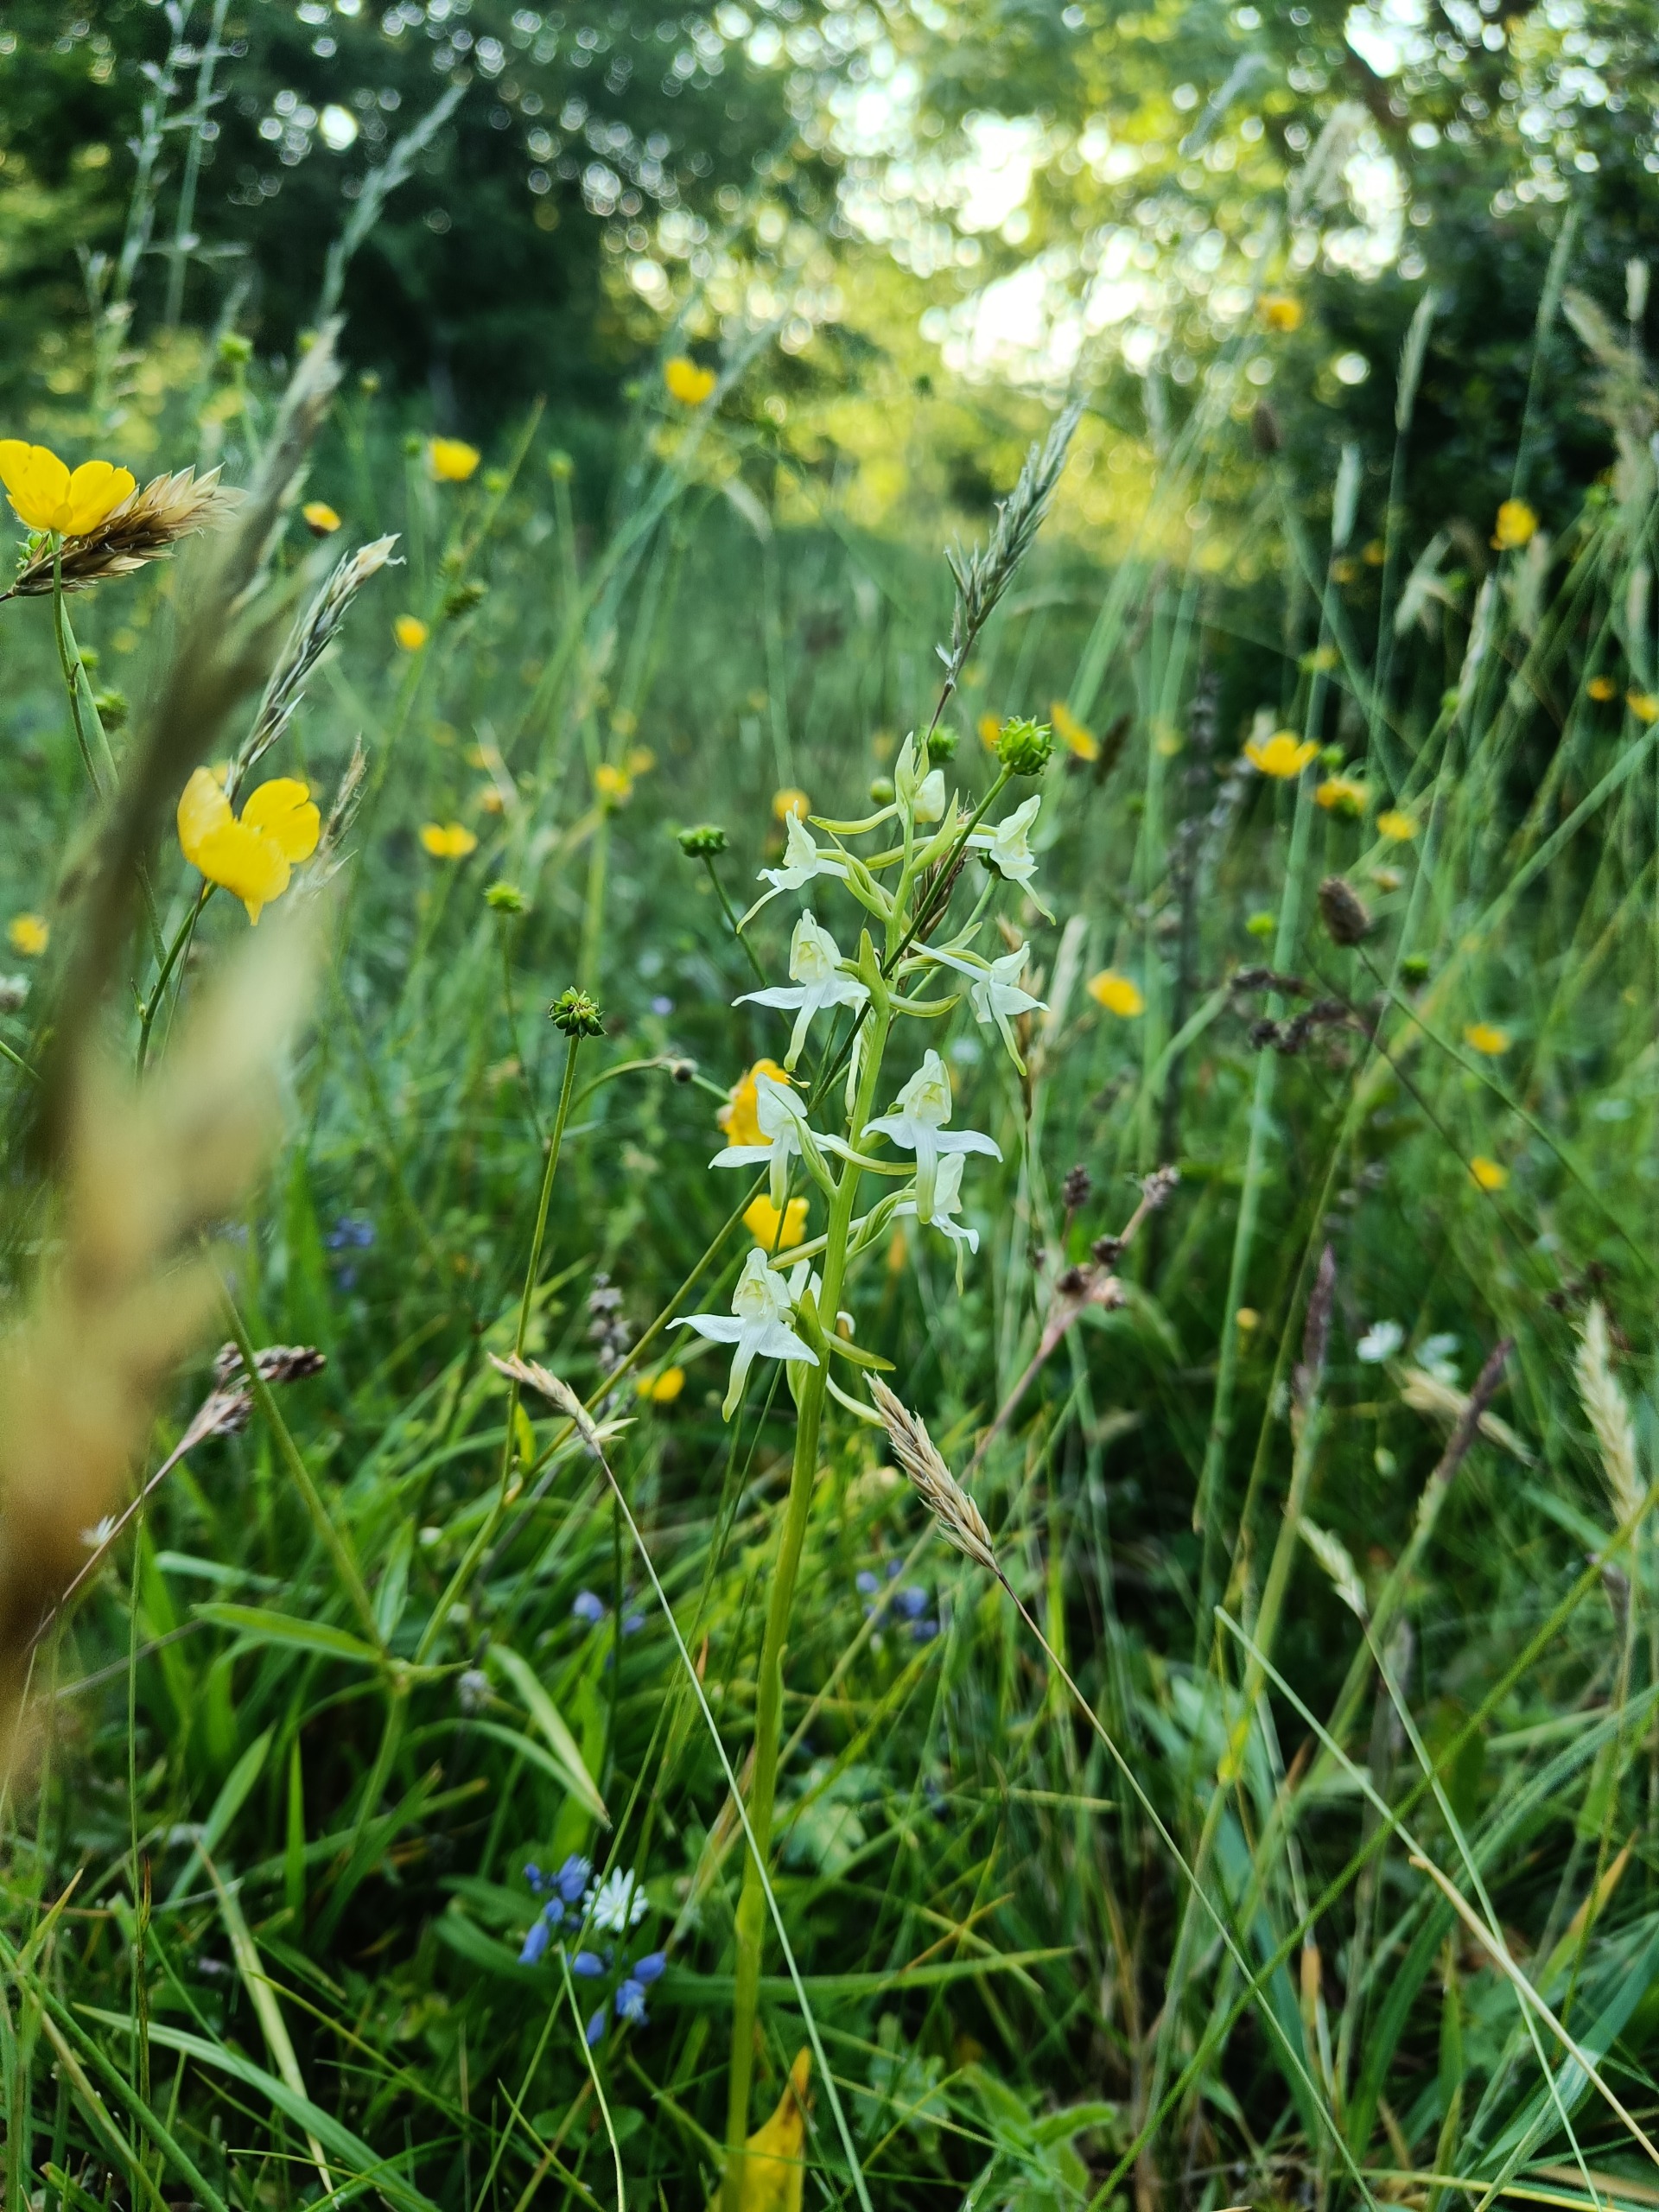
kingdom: Plantae
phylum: Tracheophyta
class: Liliopsida
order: Asparagales
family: Orchidaceae
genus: Platanthera
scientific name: Platanthera chlorantha
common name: Skov-gøgelilje
